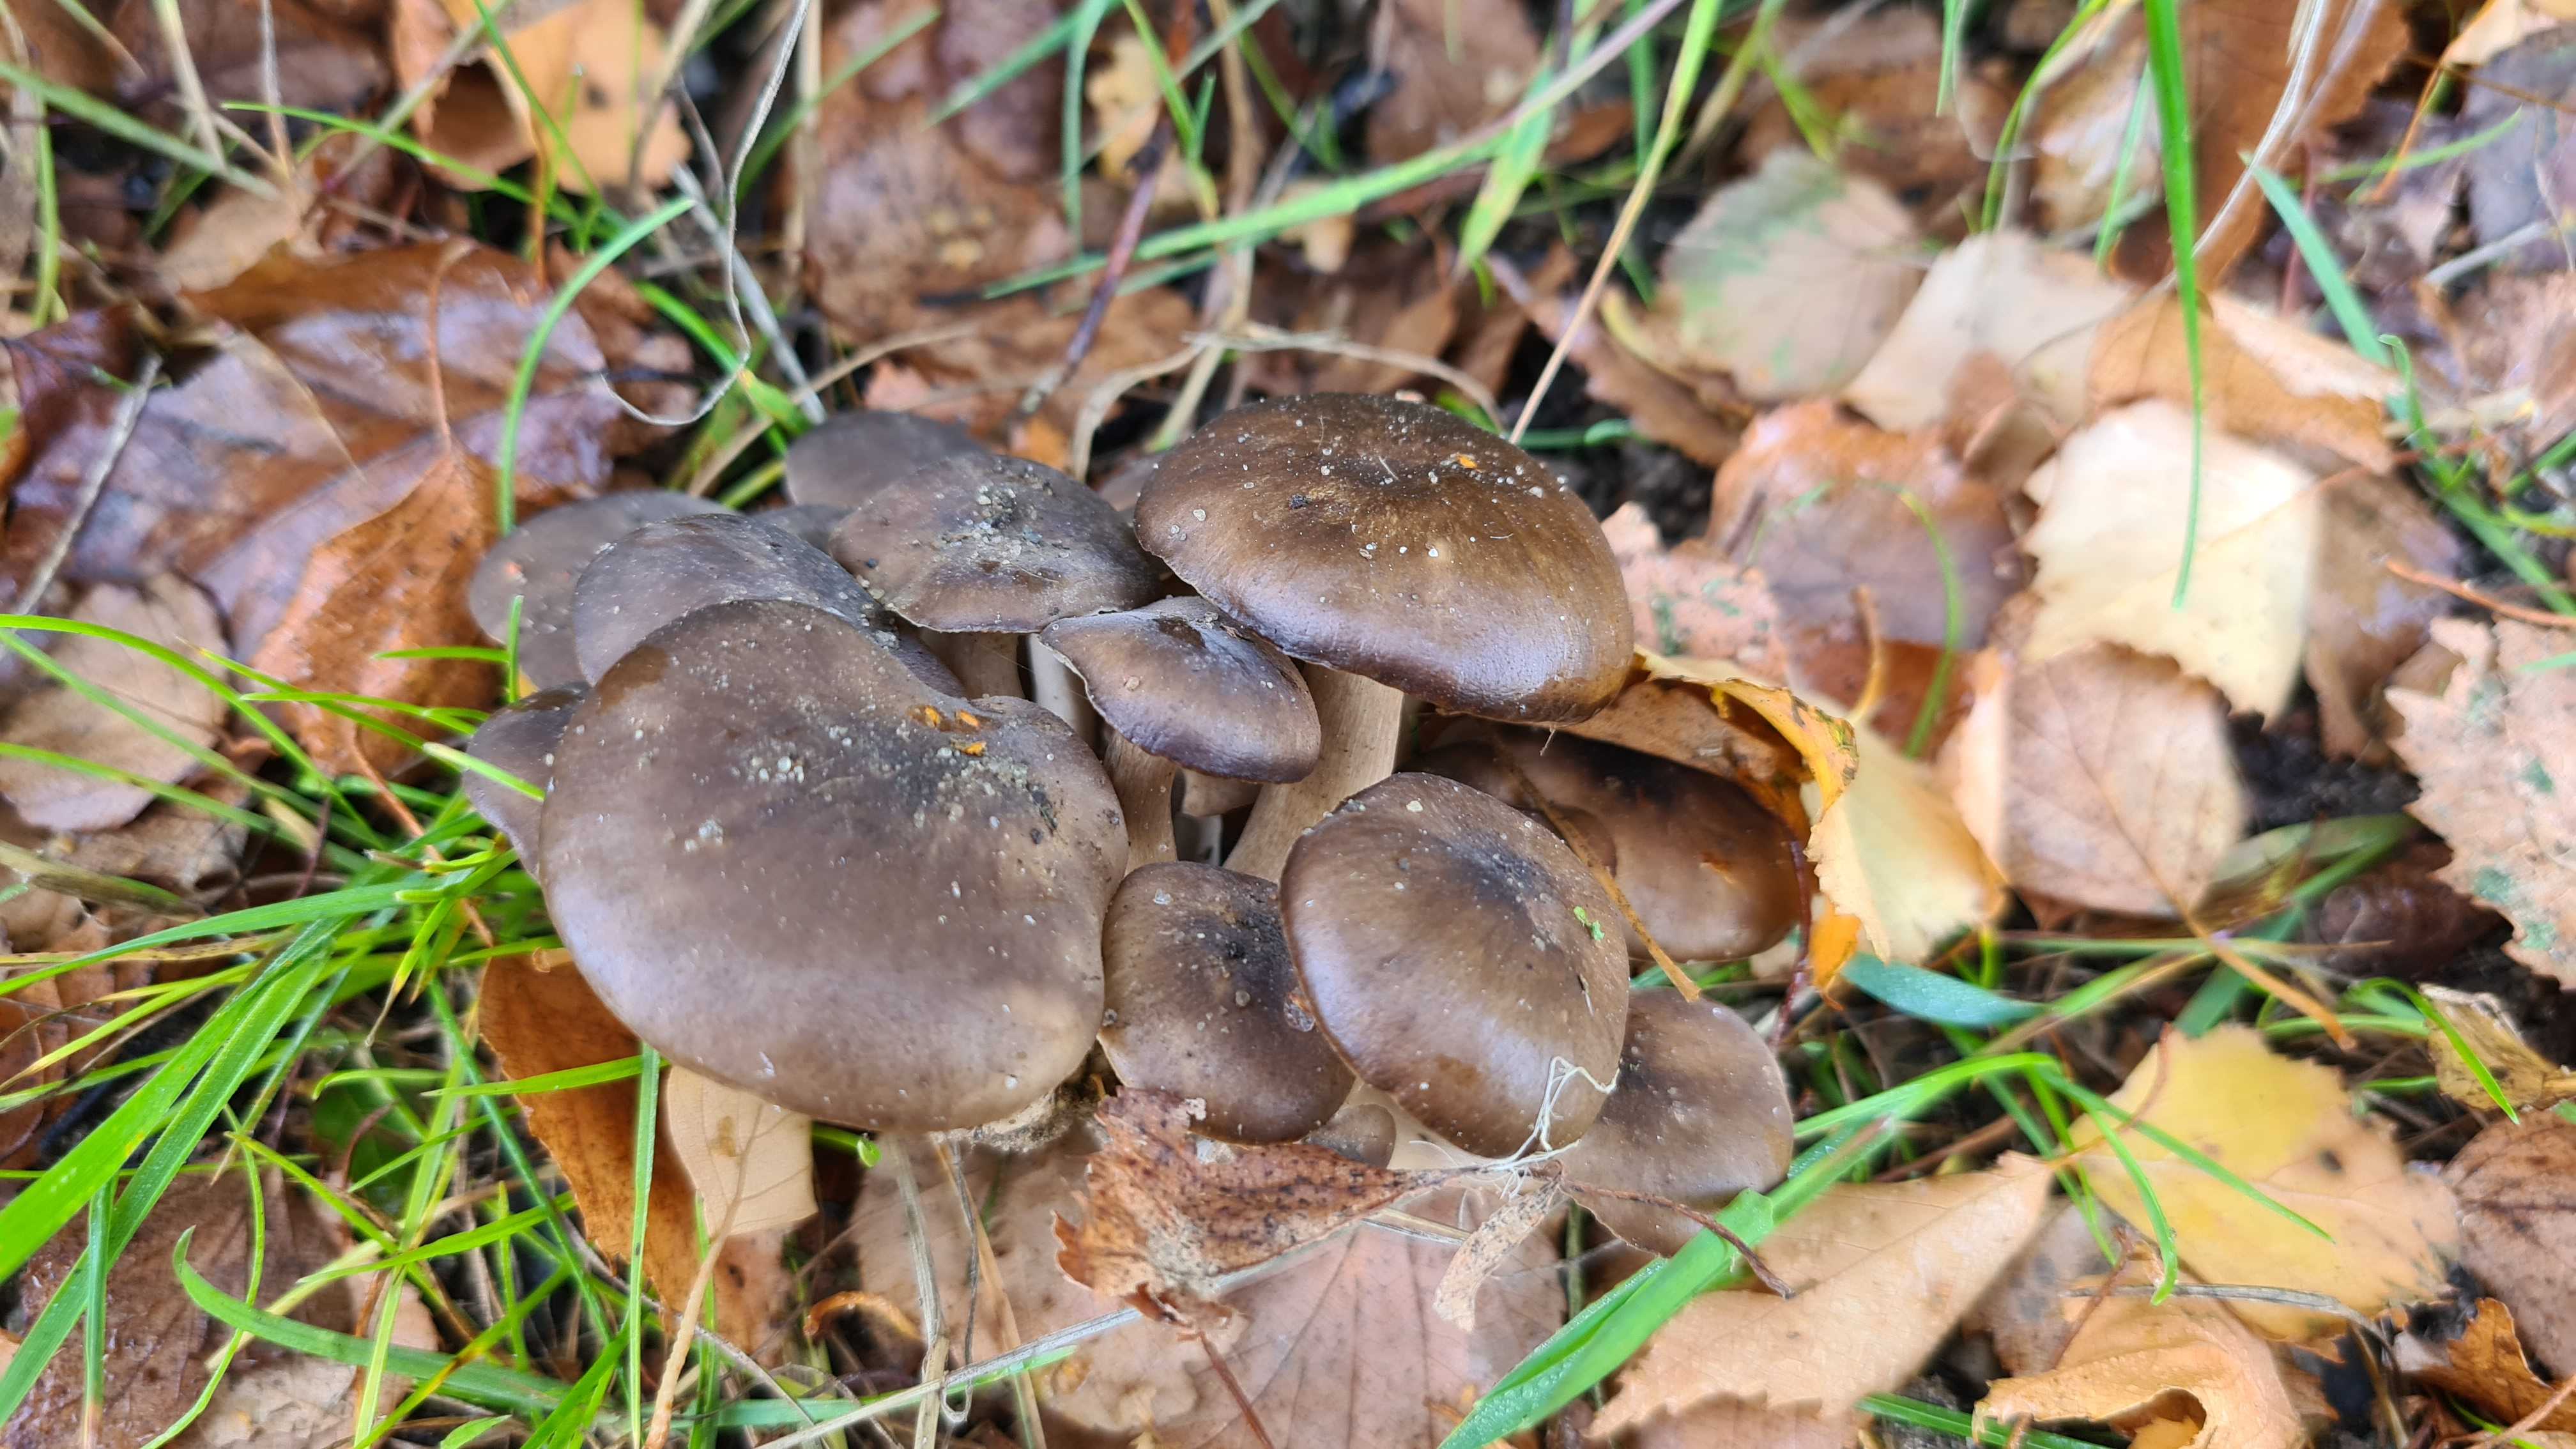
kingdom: Fungi
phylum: Basidiomycota
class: Agaricomycetes
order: Agaricales
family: Lyophyllaceae
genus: Lyophyllum
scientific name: Lyophyllum decastes
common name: Clustered domecap
